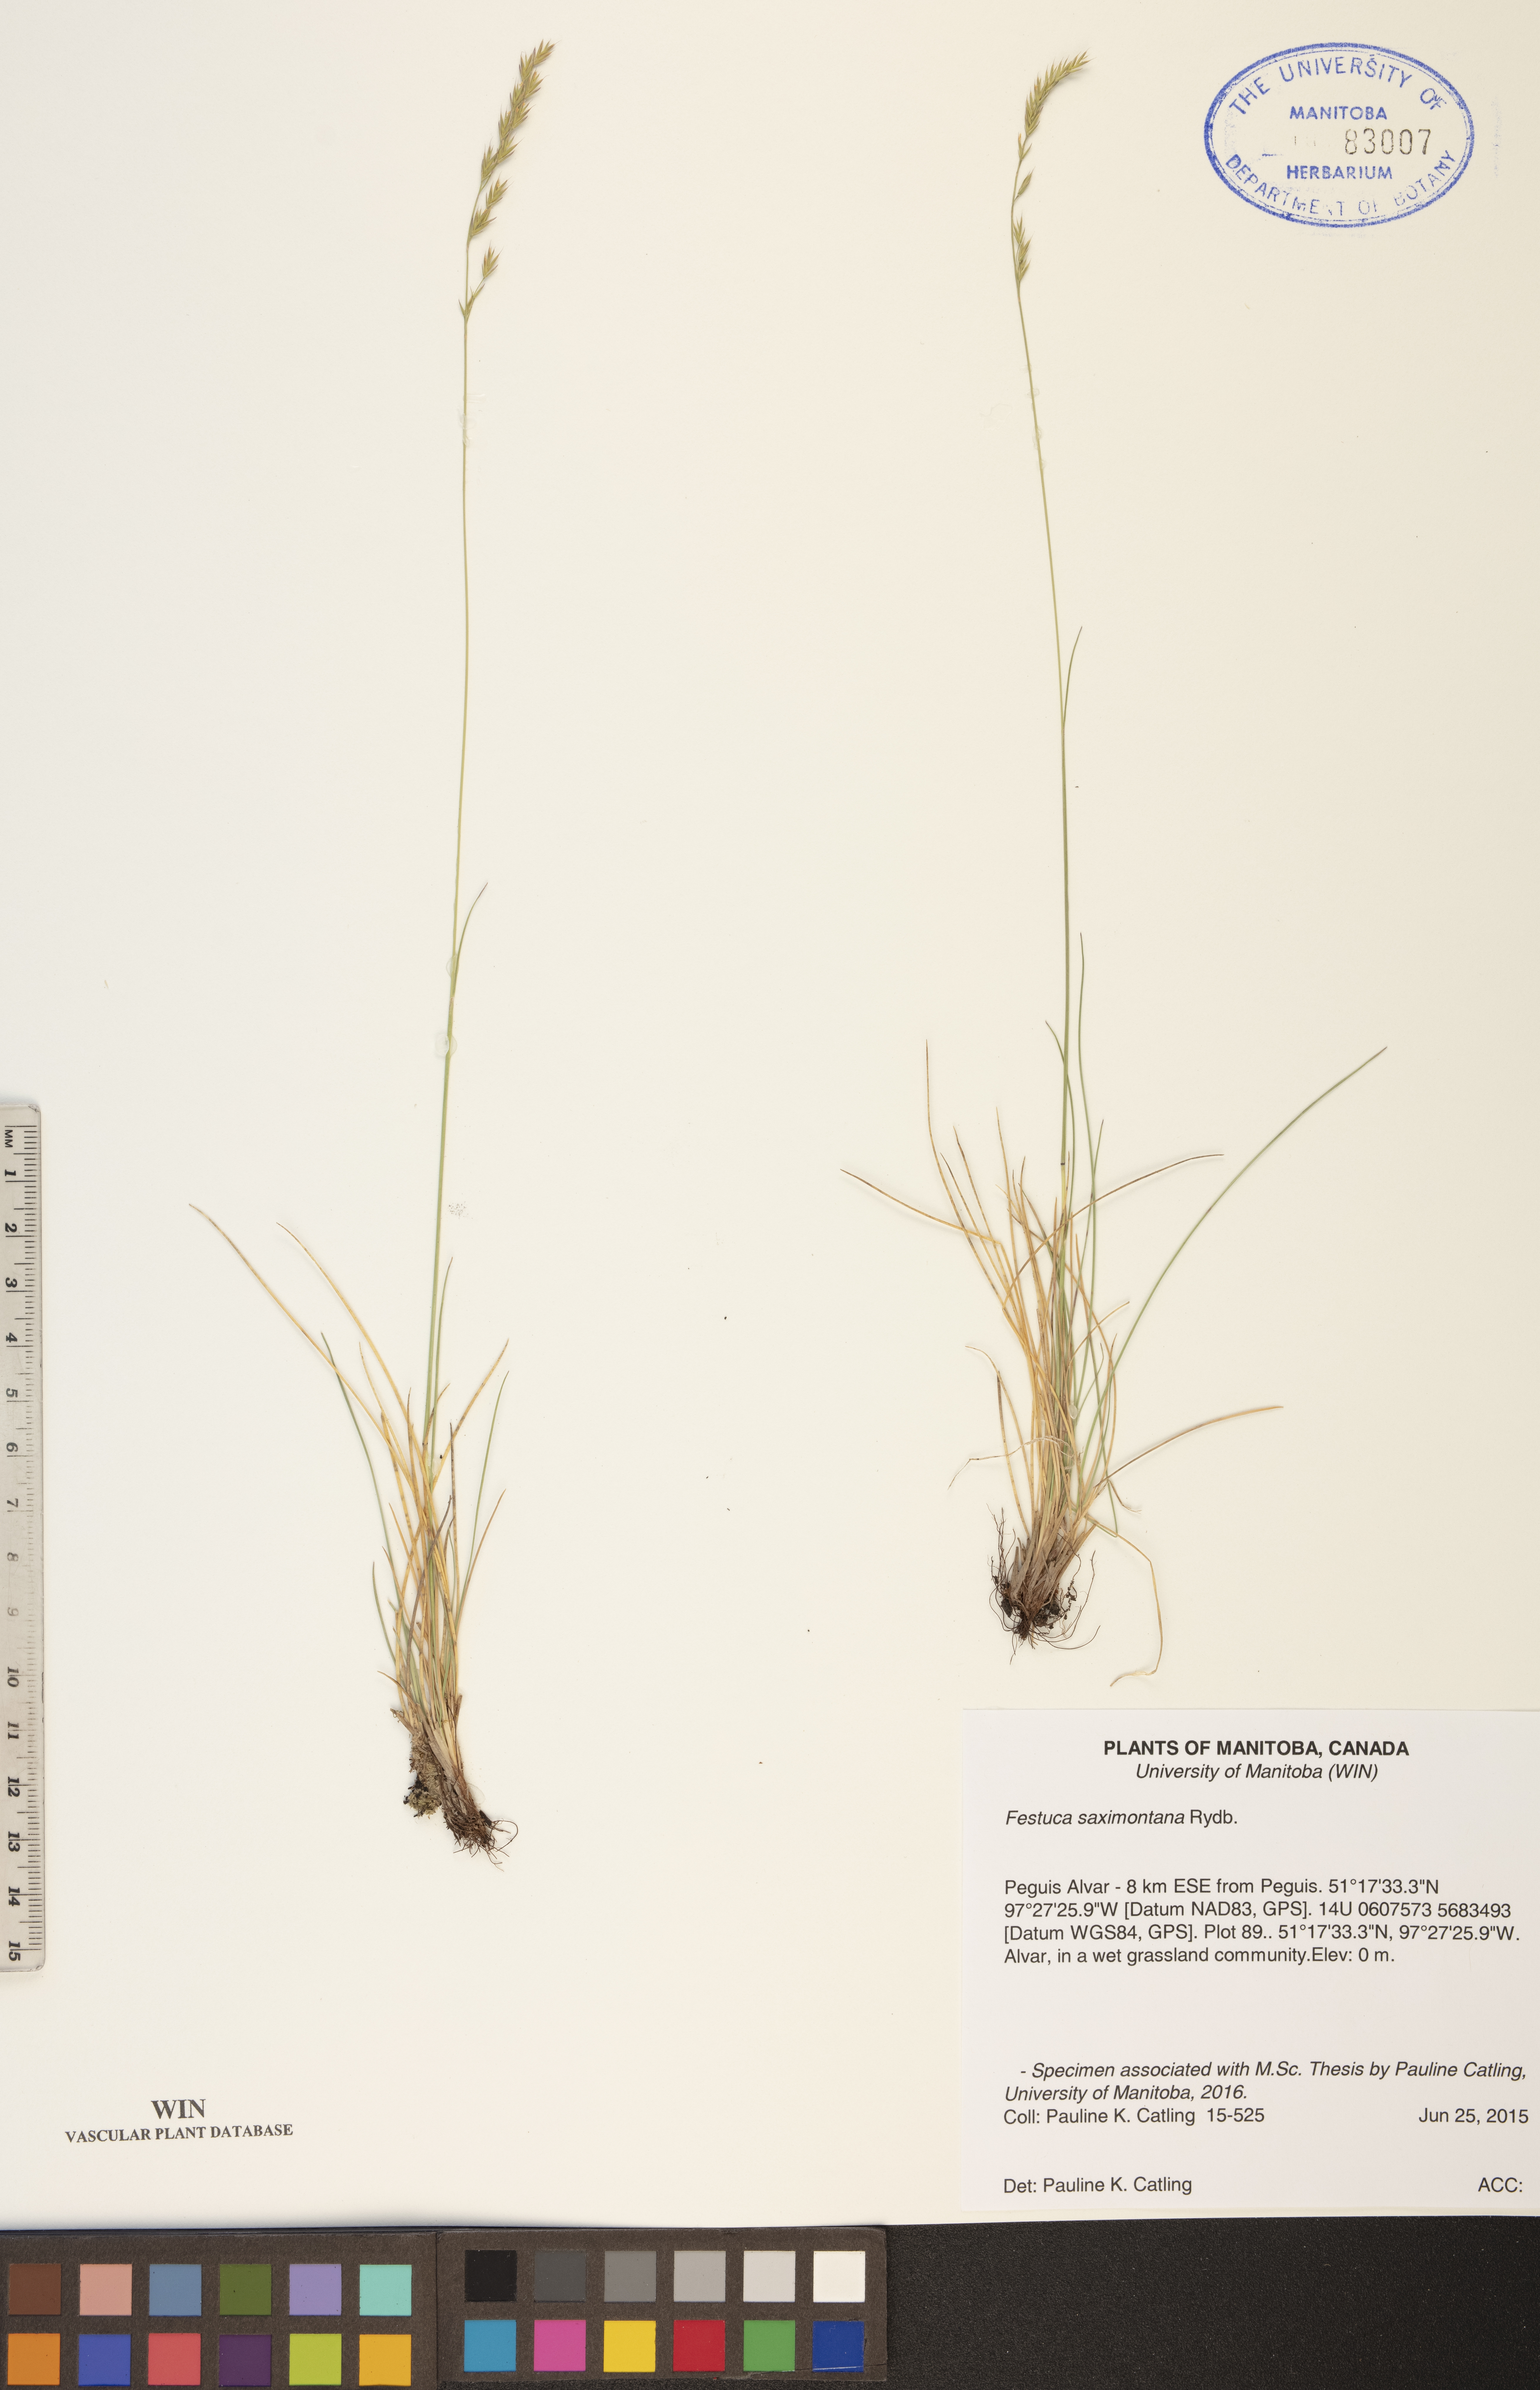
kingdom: Plantae
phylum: Tracheophyta
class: Liliopsida
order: Poales
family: Poaceae
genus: Festuca
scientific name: Festuca saximontana
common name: Mountain fescue
